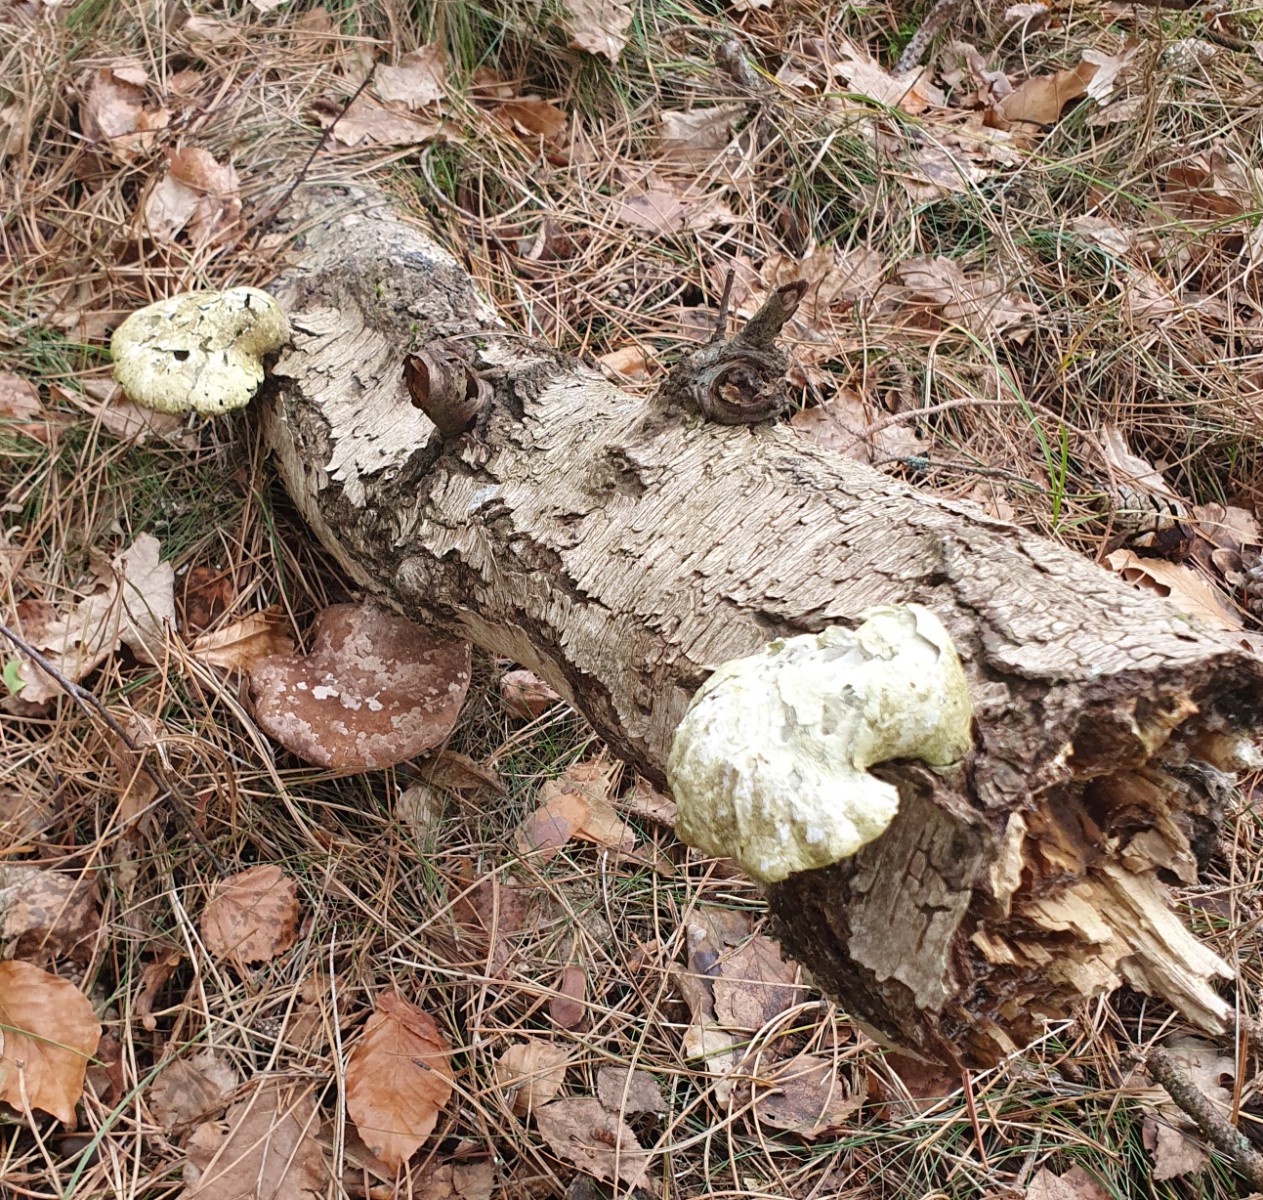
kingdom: Fungi
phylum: Basidiomycota
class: Agaricomycetes
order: Polyporales
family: Fomitopsidaceae
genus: Fomitopsis
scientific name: Fomitopsis betulina
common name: birkeporesvamp
